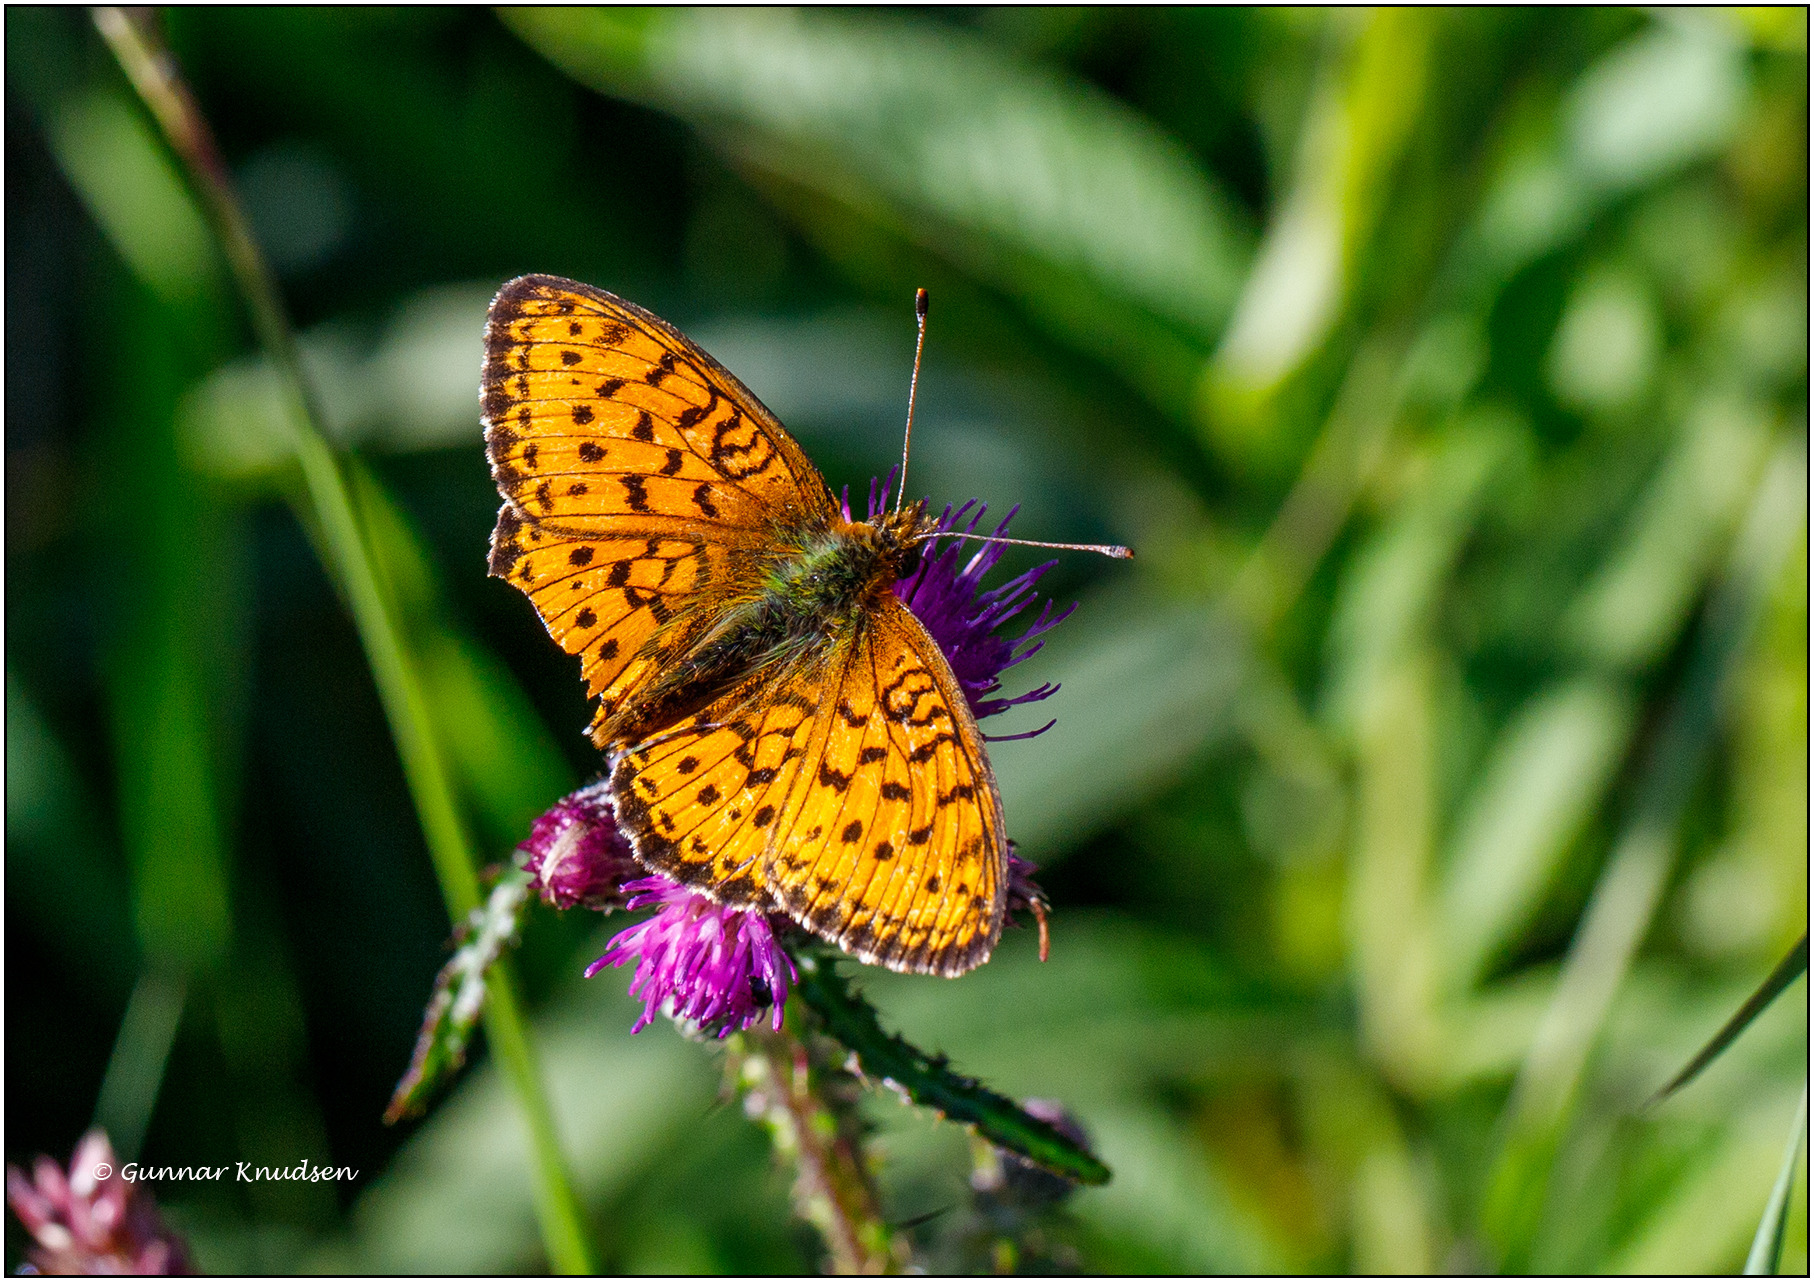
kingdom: Animalia
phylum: Arthropoda
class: Insecta
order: Lepidoptera
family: Nymphalidae
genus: Brenthis
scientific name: Brenthis ino
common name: Engperlemorsommerfugl
